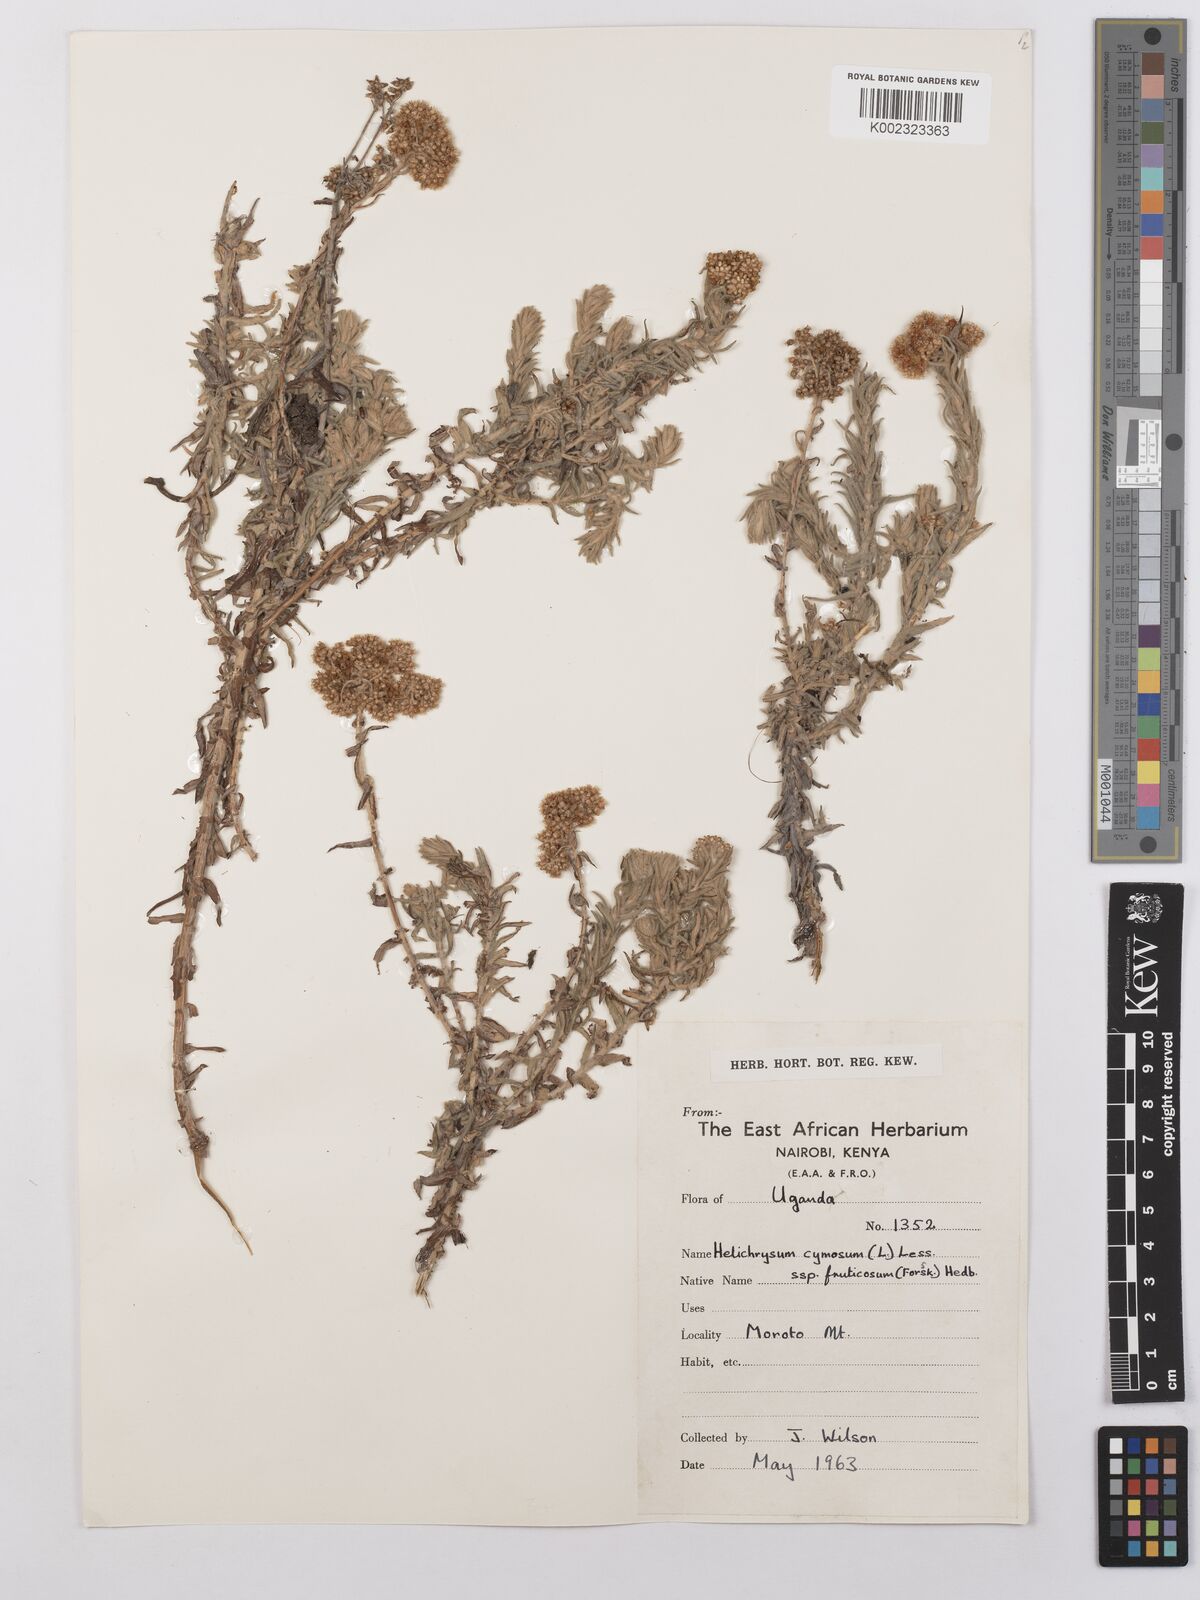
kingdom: Plantae
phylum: Tracheophyta
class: Magnoliopsida
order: Asterales
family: Asteraceae
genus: Helichrysum
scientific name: Helichrysum forskahlii
